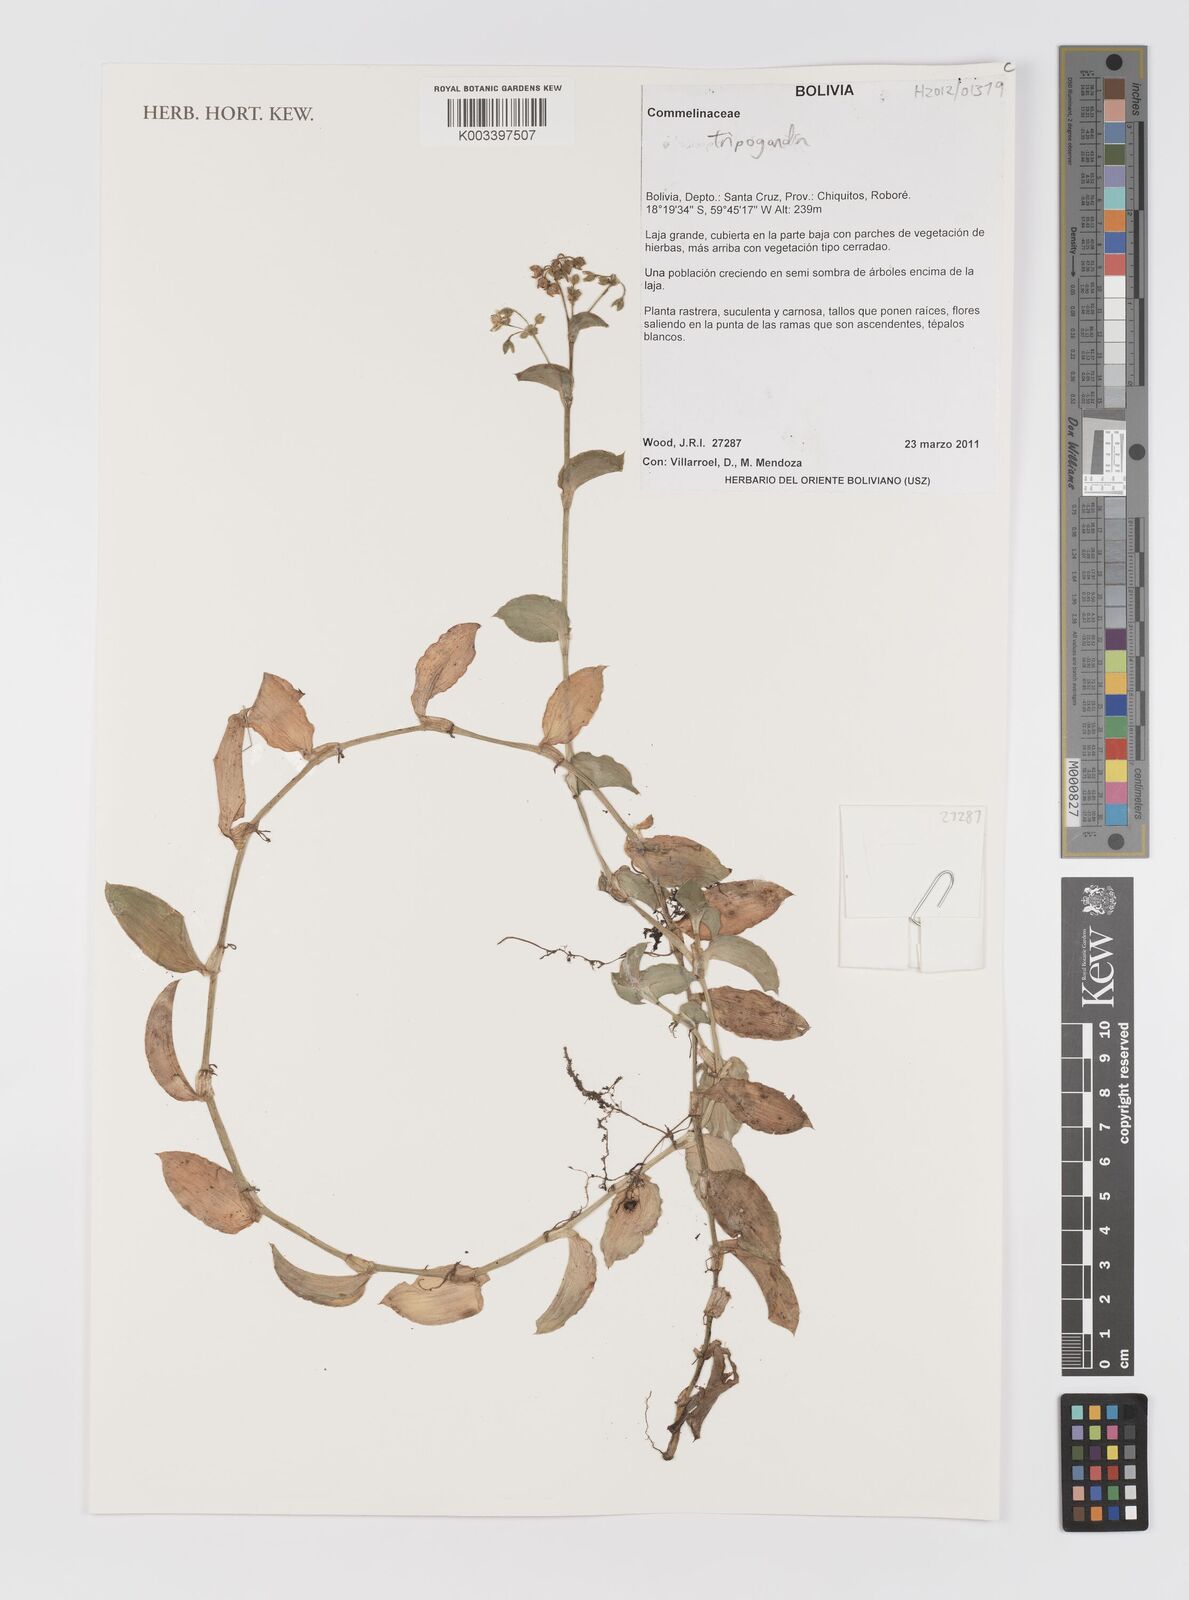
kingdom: Plantae
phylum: Tracheophyta
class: Liliopsida
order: Commelinales
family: Commelinaceae
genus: Callisia
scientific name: Callisia
